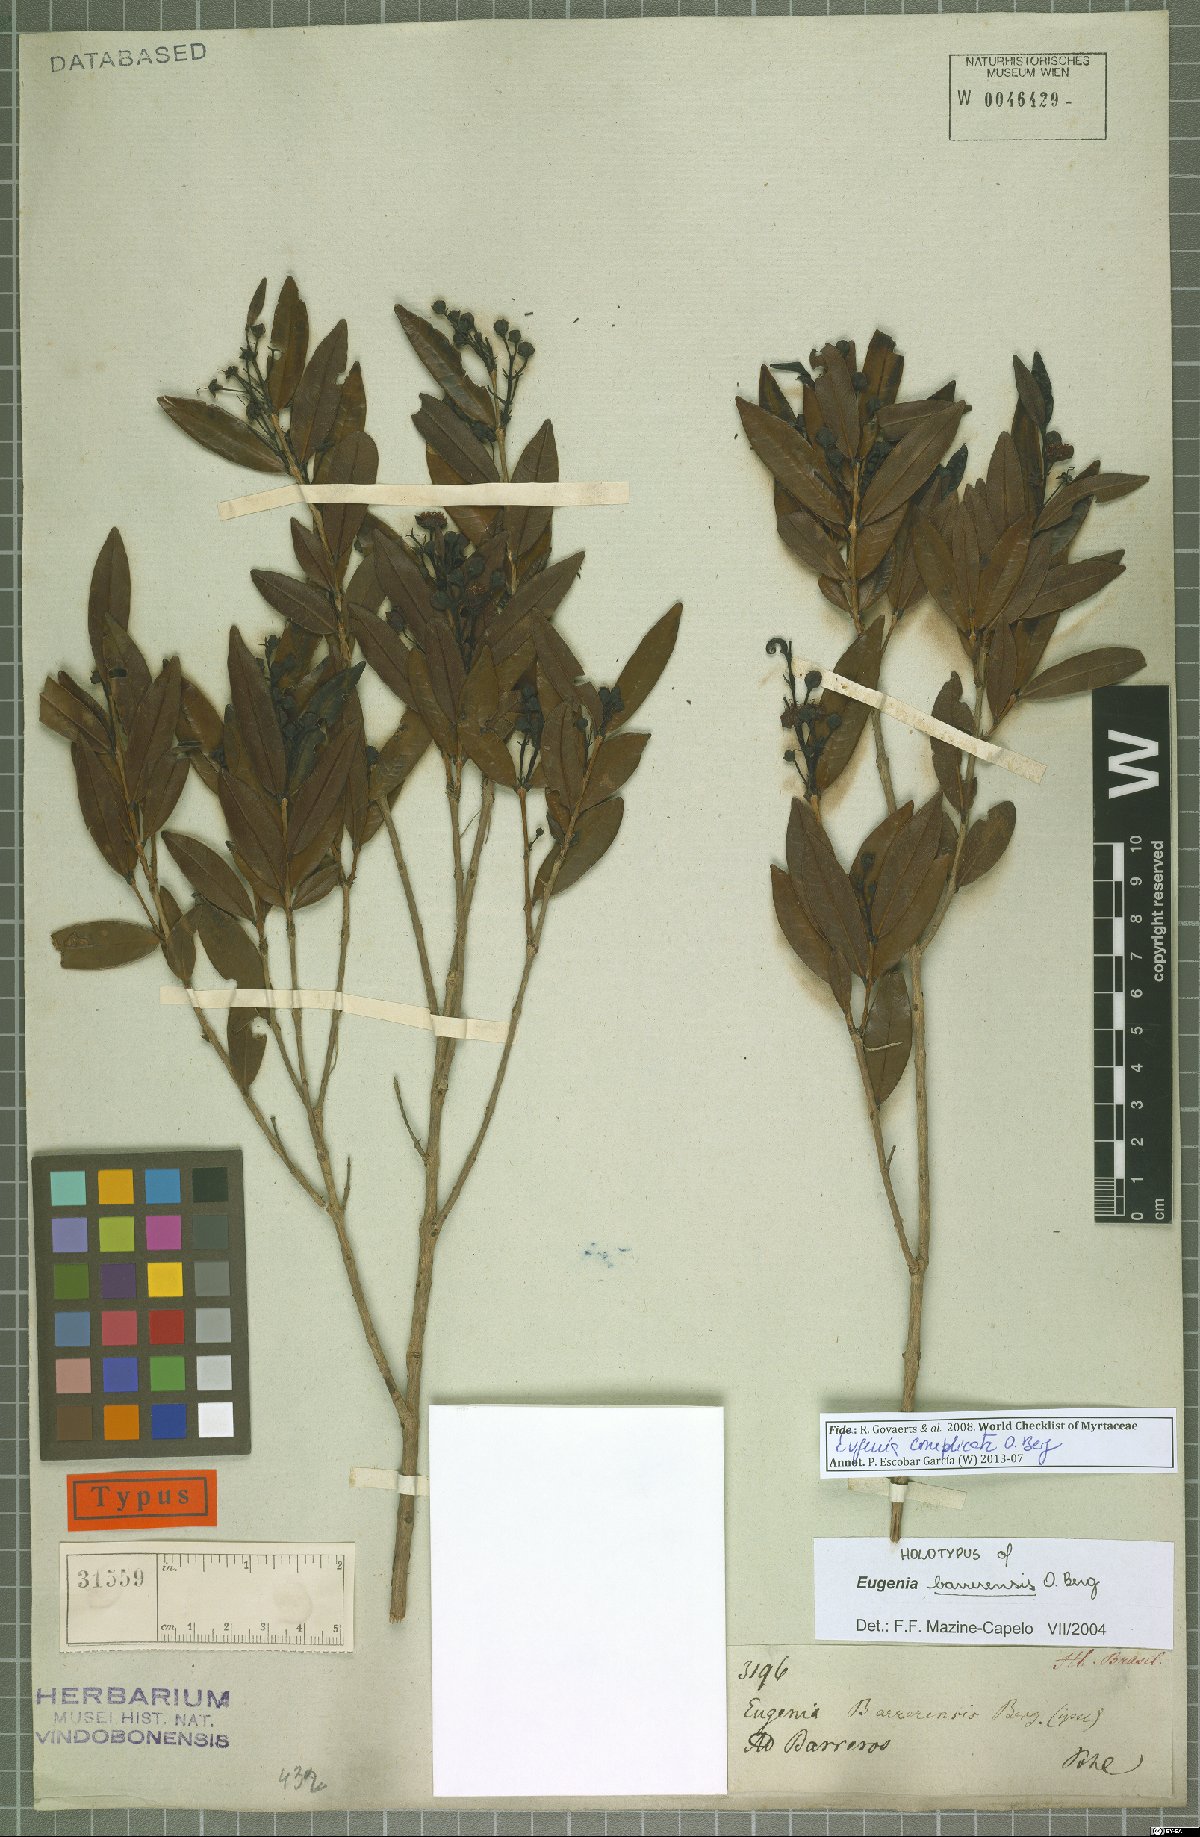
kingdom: Plantae
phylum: Tracheophyta
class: Magnoliopsida
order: Myrtales
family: Myrtaceae
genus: Eugenia
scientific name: Eugenia complicata
